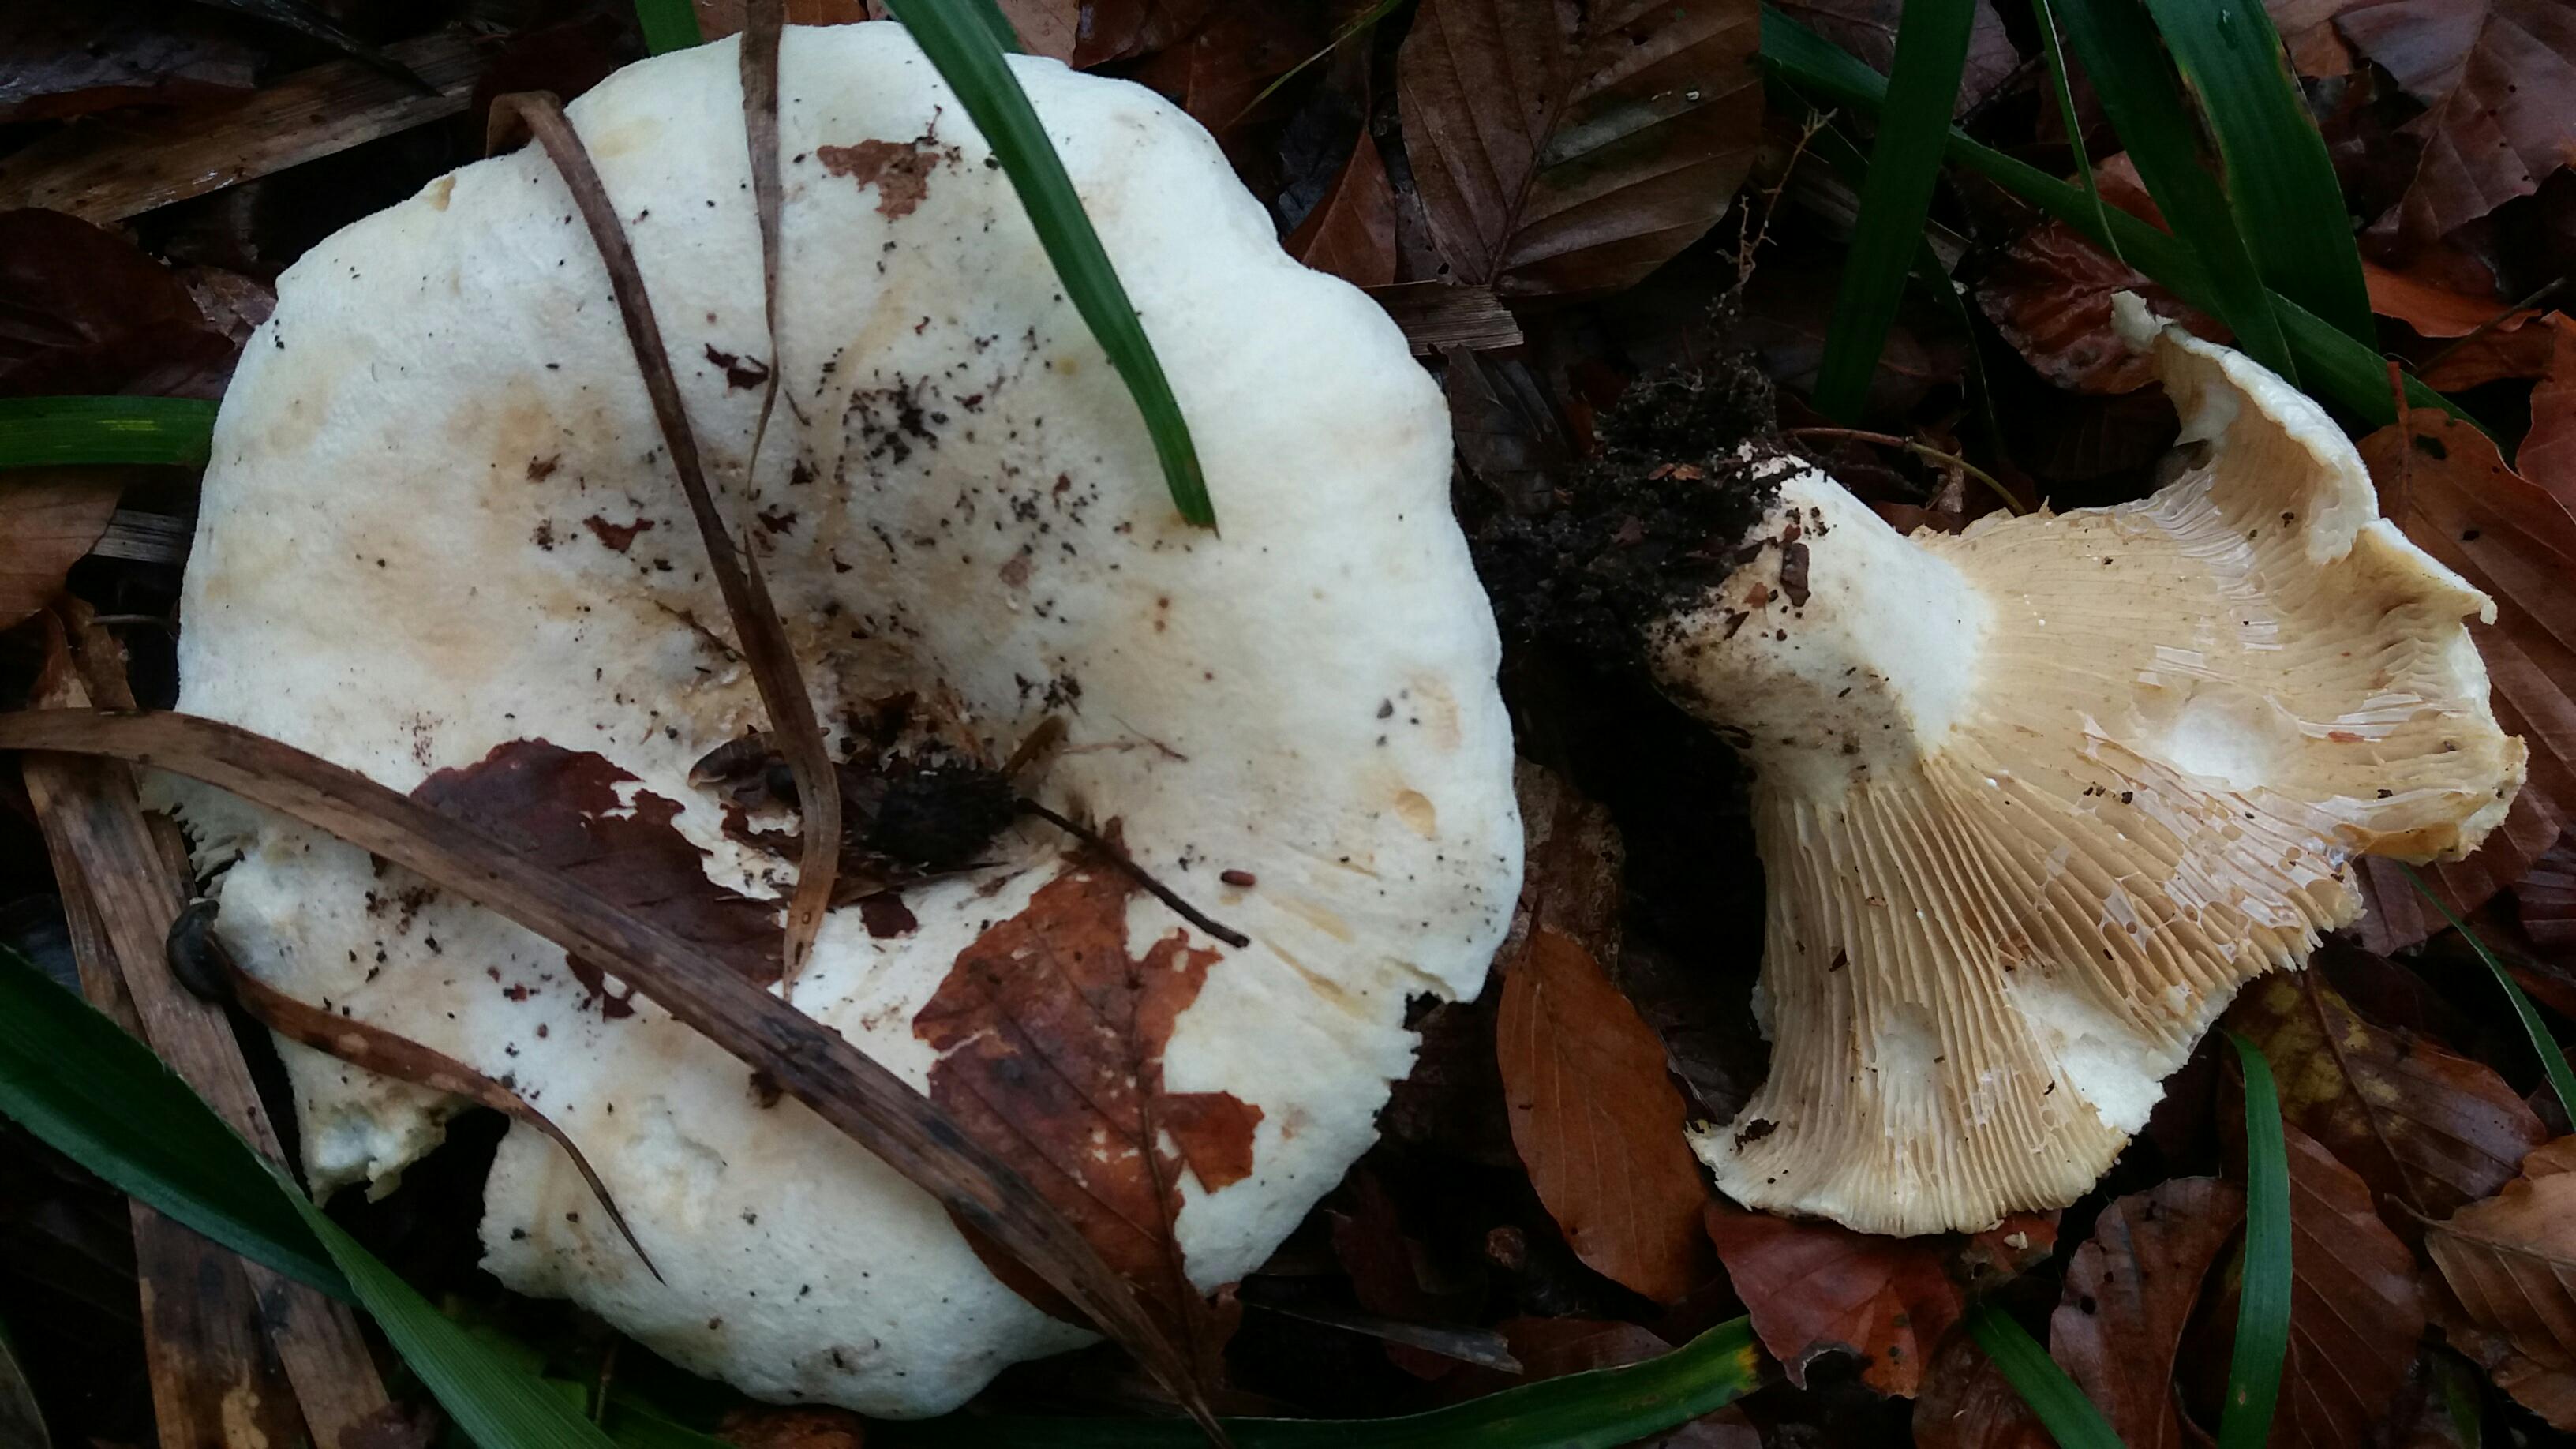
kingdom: Fungi
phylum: Basidiomycota
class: Agaricomycetes
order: Russulales
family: Russulaceae
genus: Lactifluus
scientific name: Lactifluus vellereus
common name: hvidfiltet mælkehat
